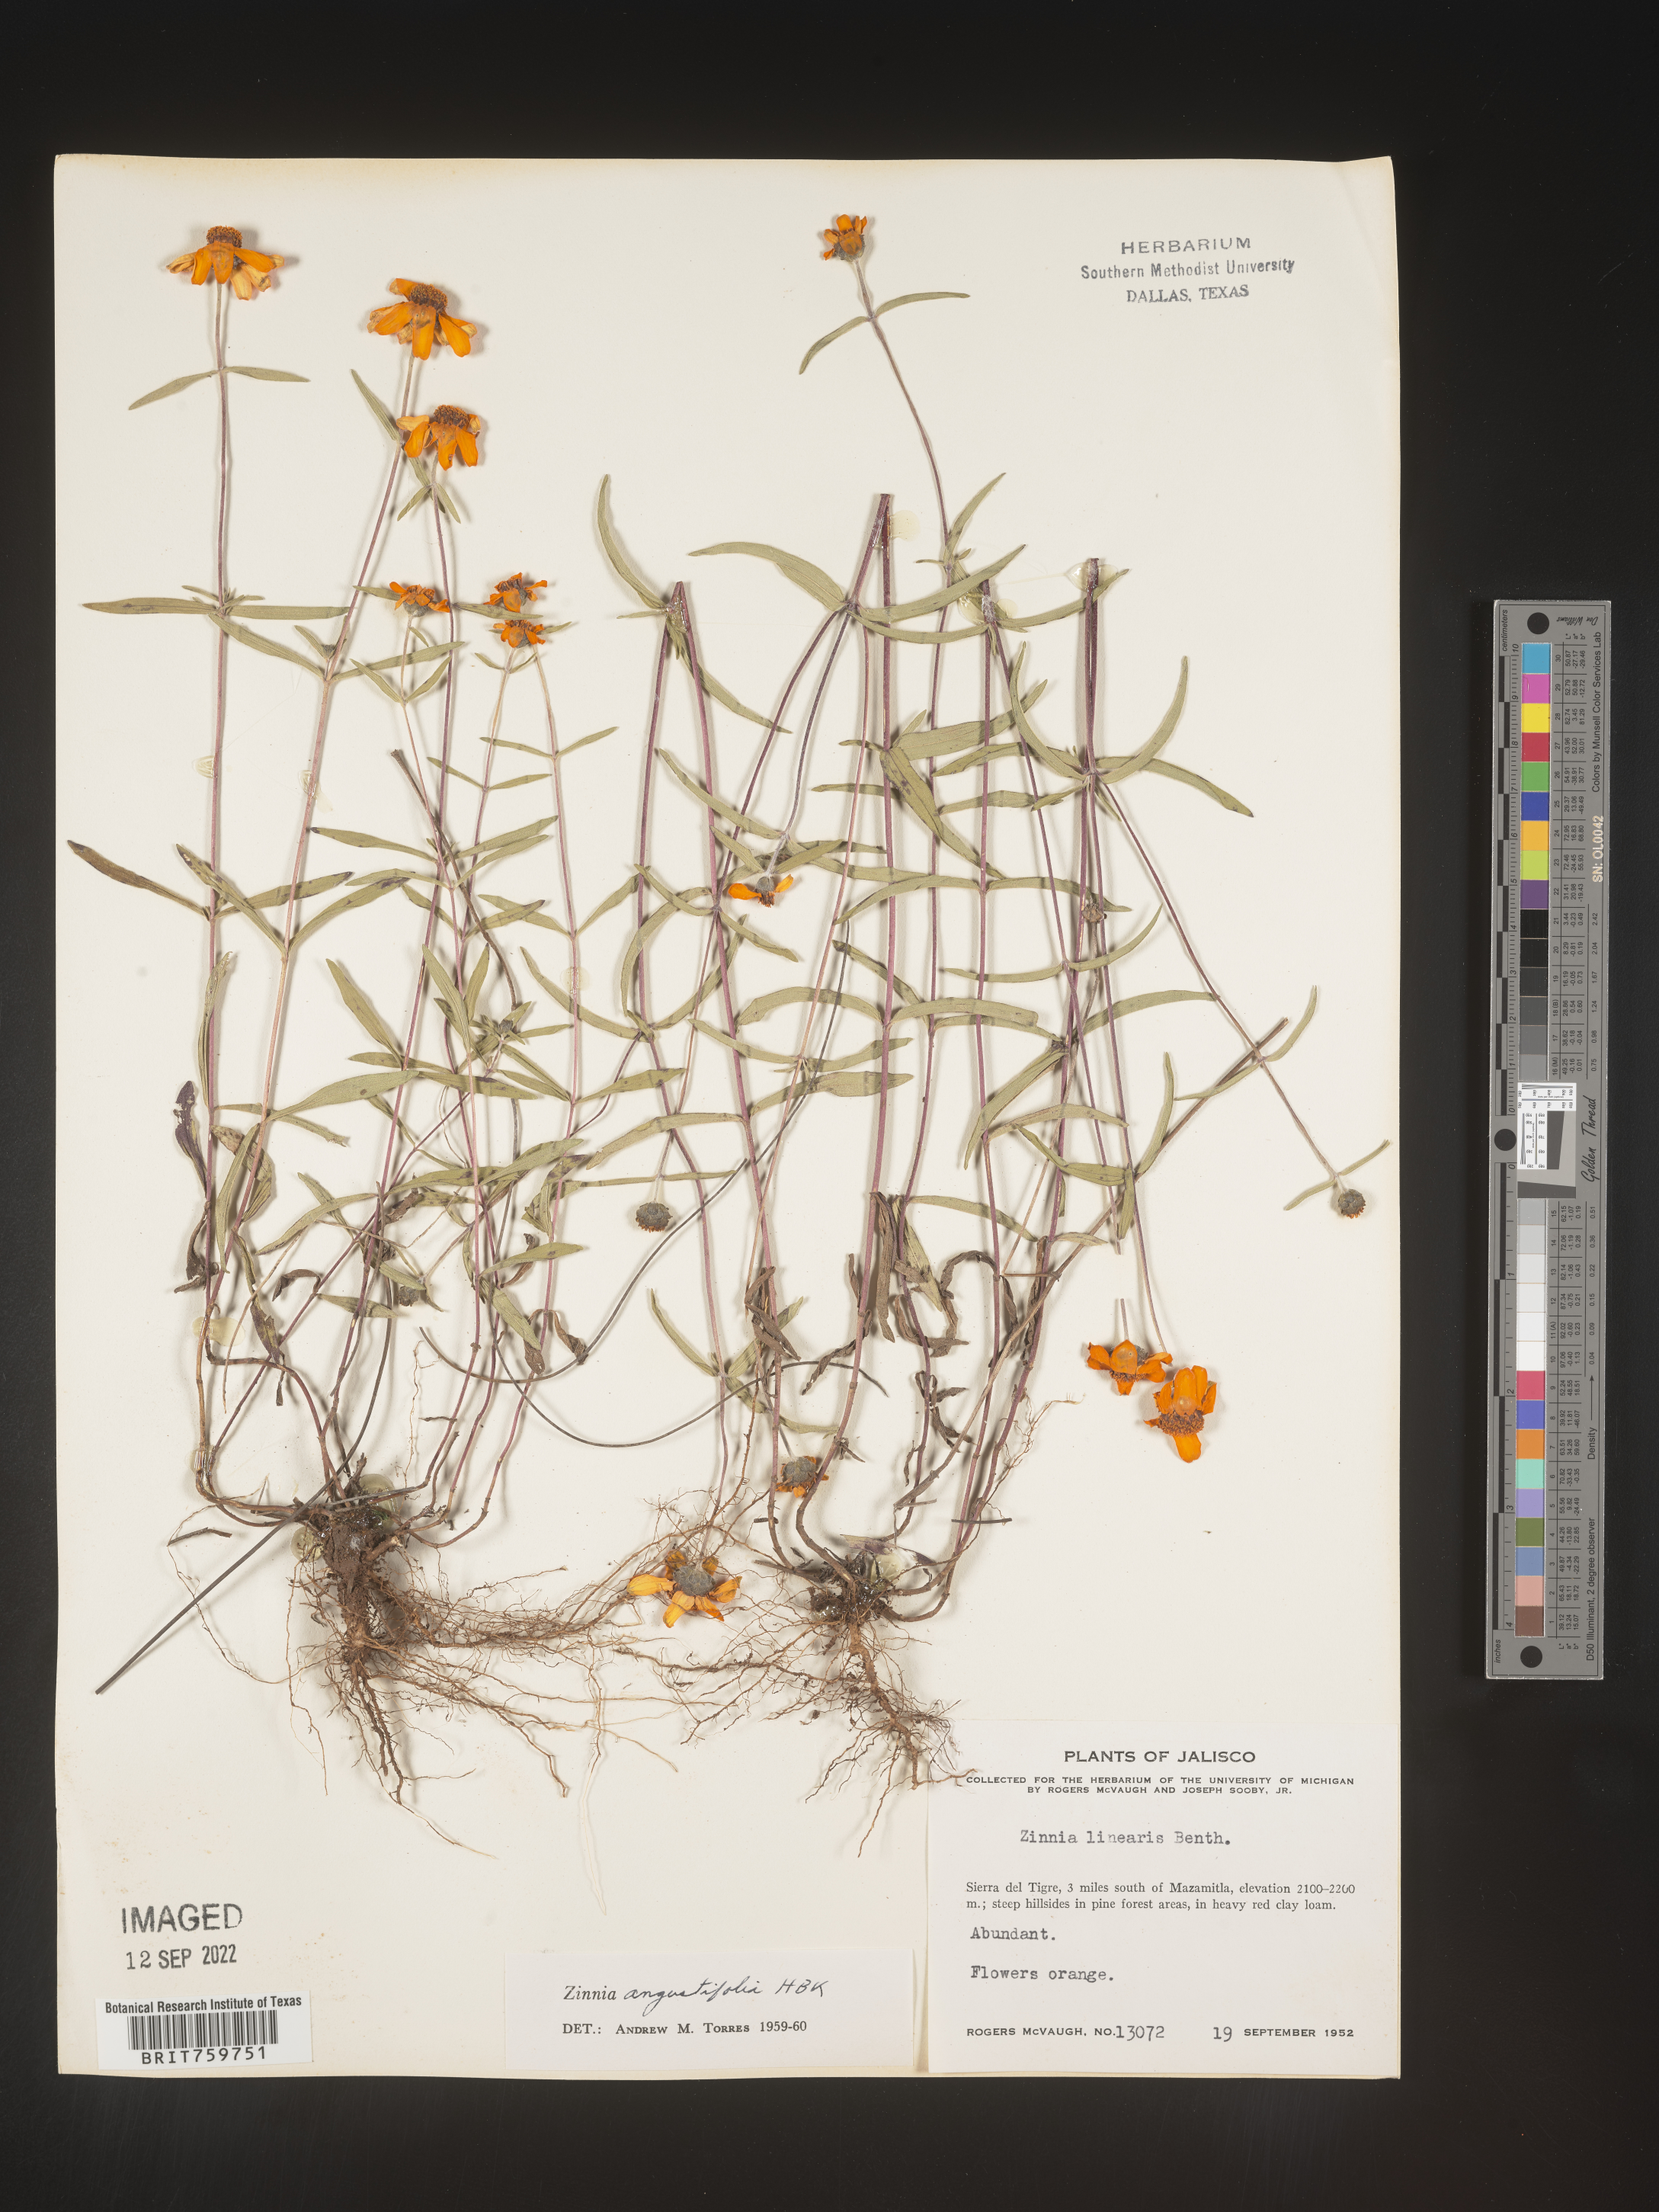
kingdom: Plantae
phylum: Tracheophyta
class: Magnoliopsida
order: Asterales
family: Asteraceae
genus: Zinnia
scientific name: Zinnia
